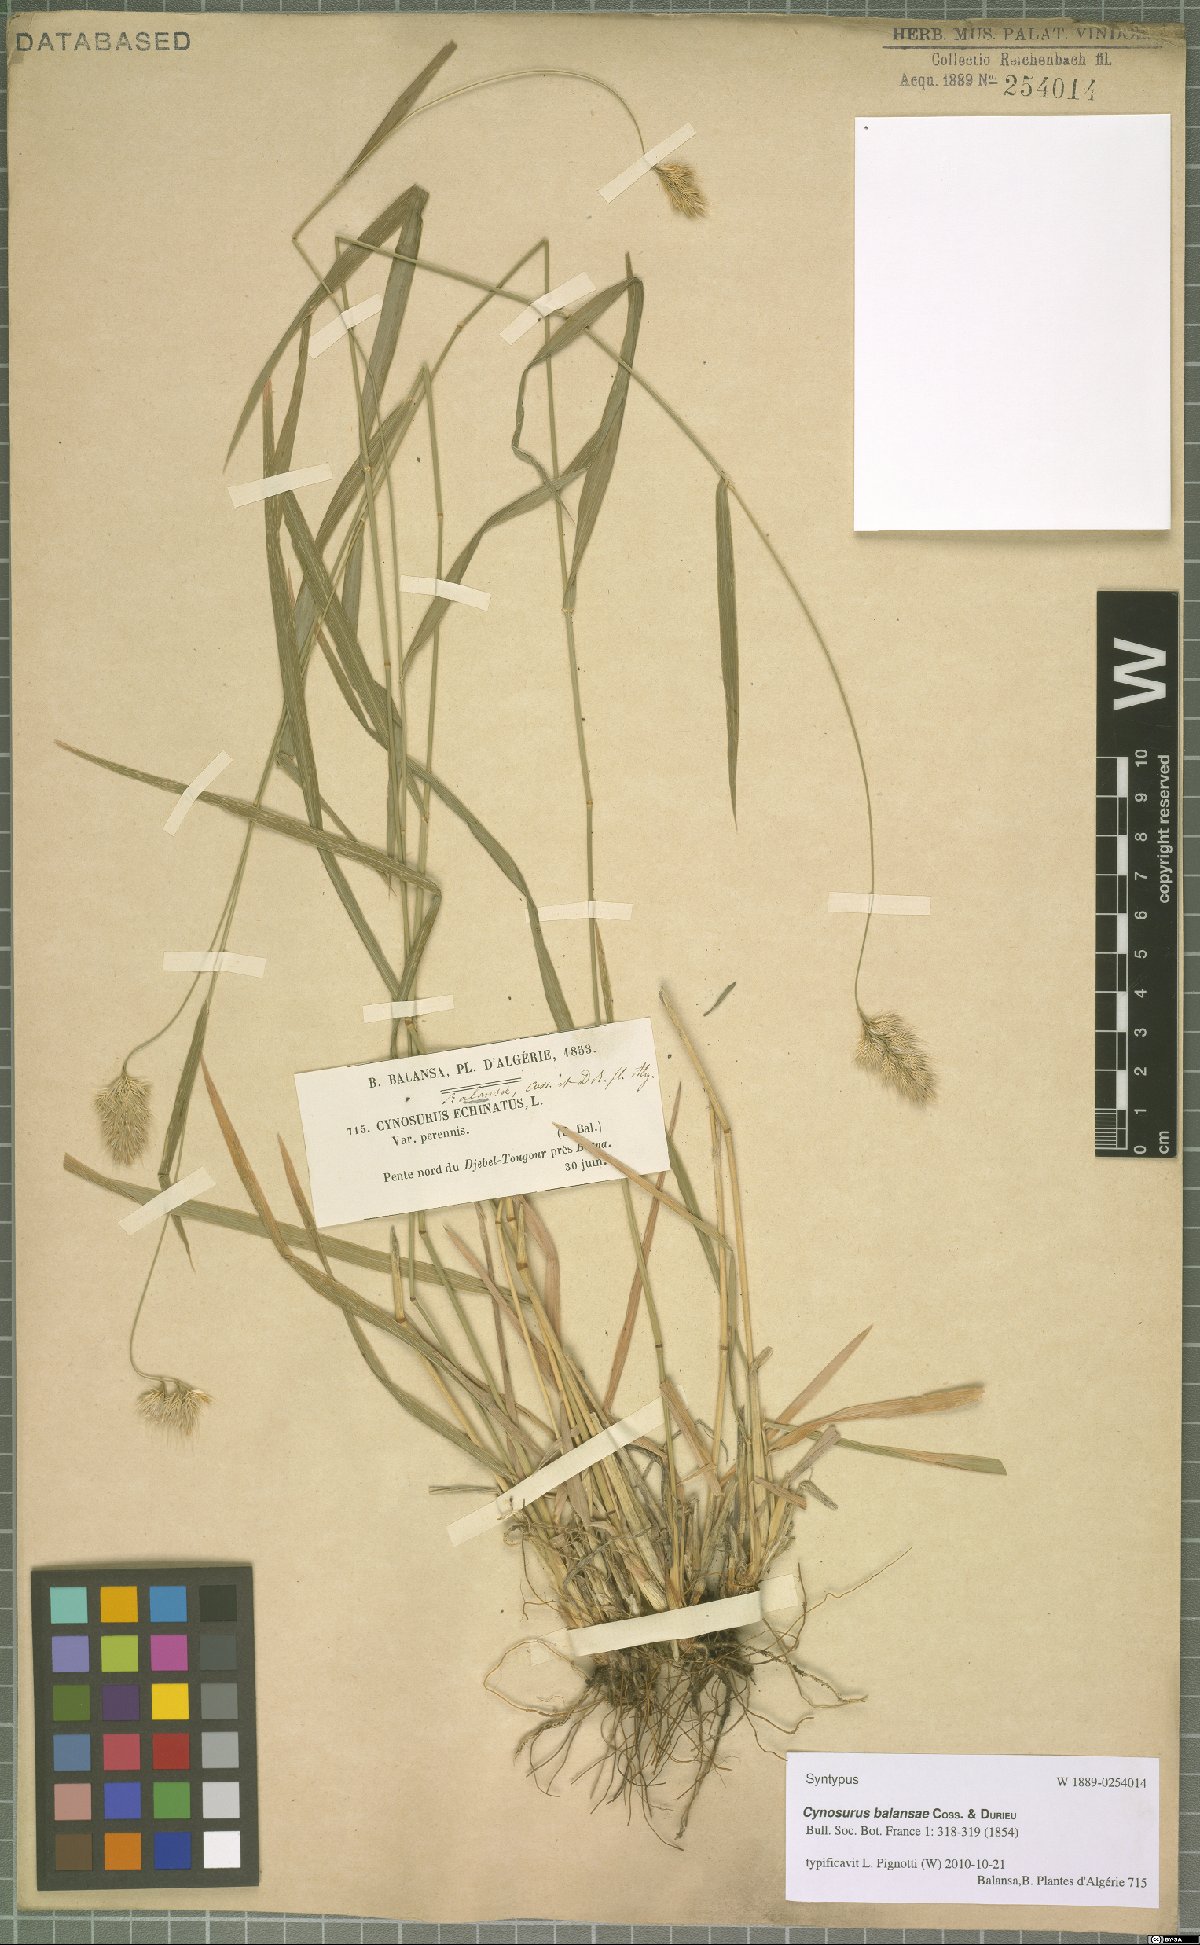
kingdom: Plantae
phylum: Tracheophyta
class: Liliopsida
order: Poales
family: Poaceae
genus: Cynosurus
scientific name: Cynosurus balansae
